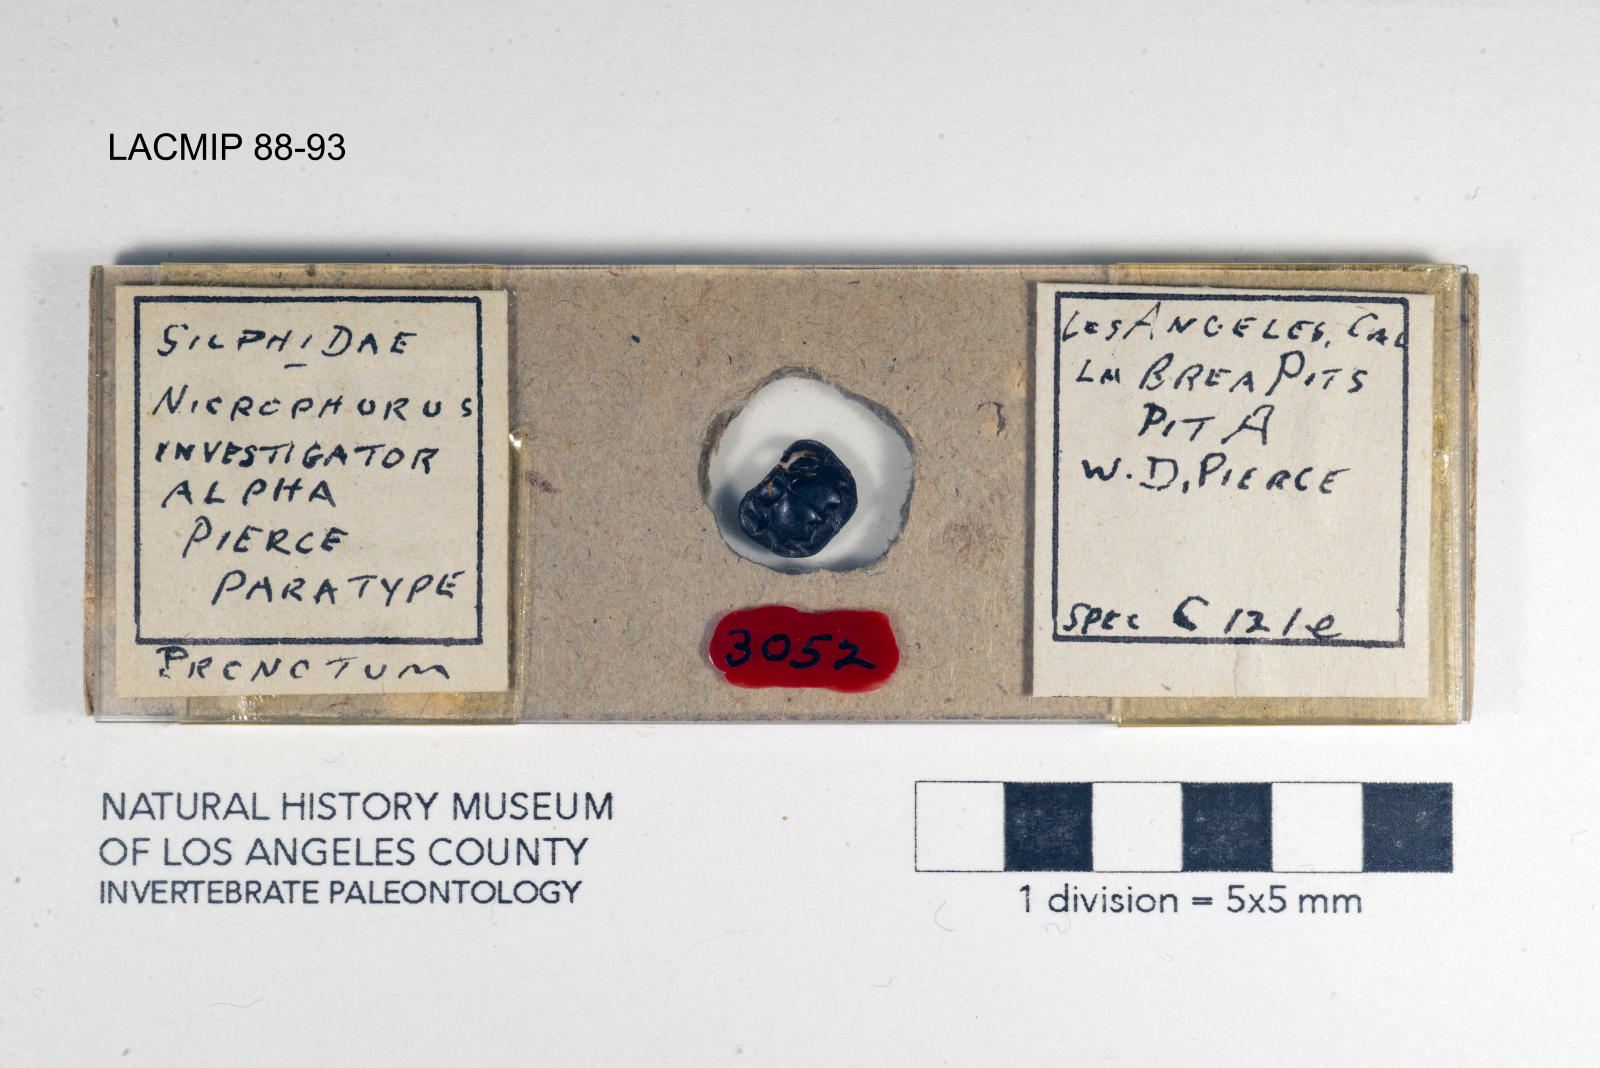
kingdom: Animalia
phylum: Arthropoda
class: Insecta
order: Coleoptera
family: Staphylinidae
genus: Nicrophorus
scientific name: Nicrophorus nigrita
